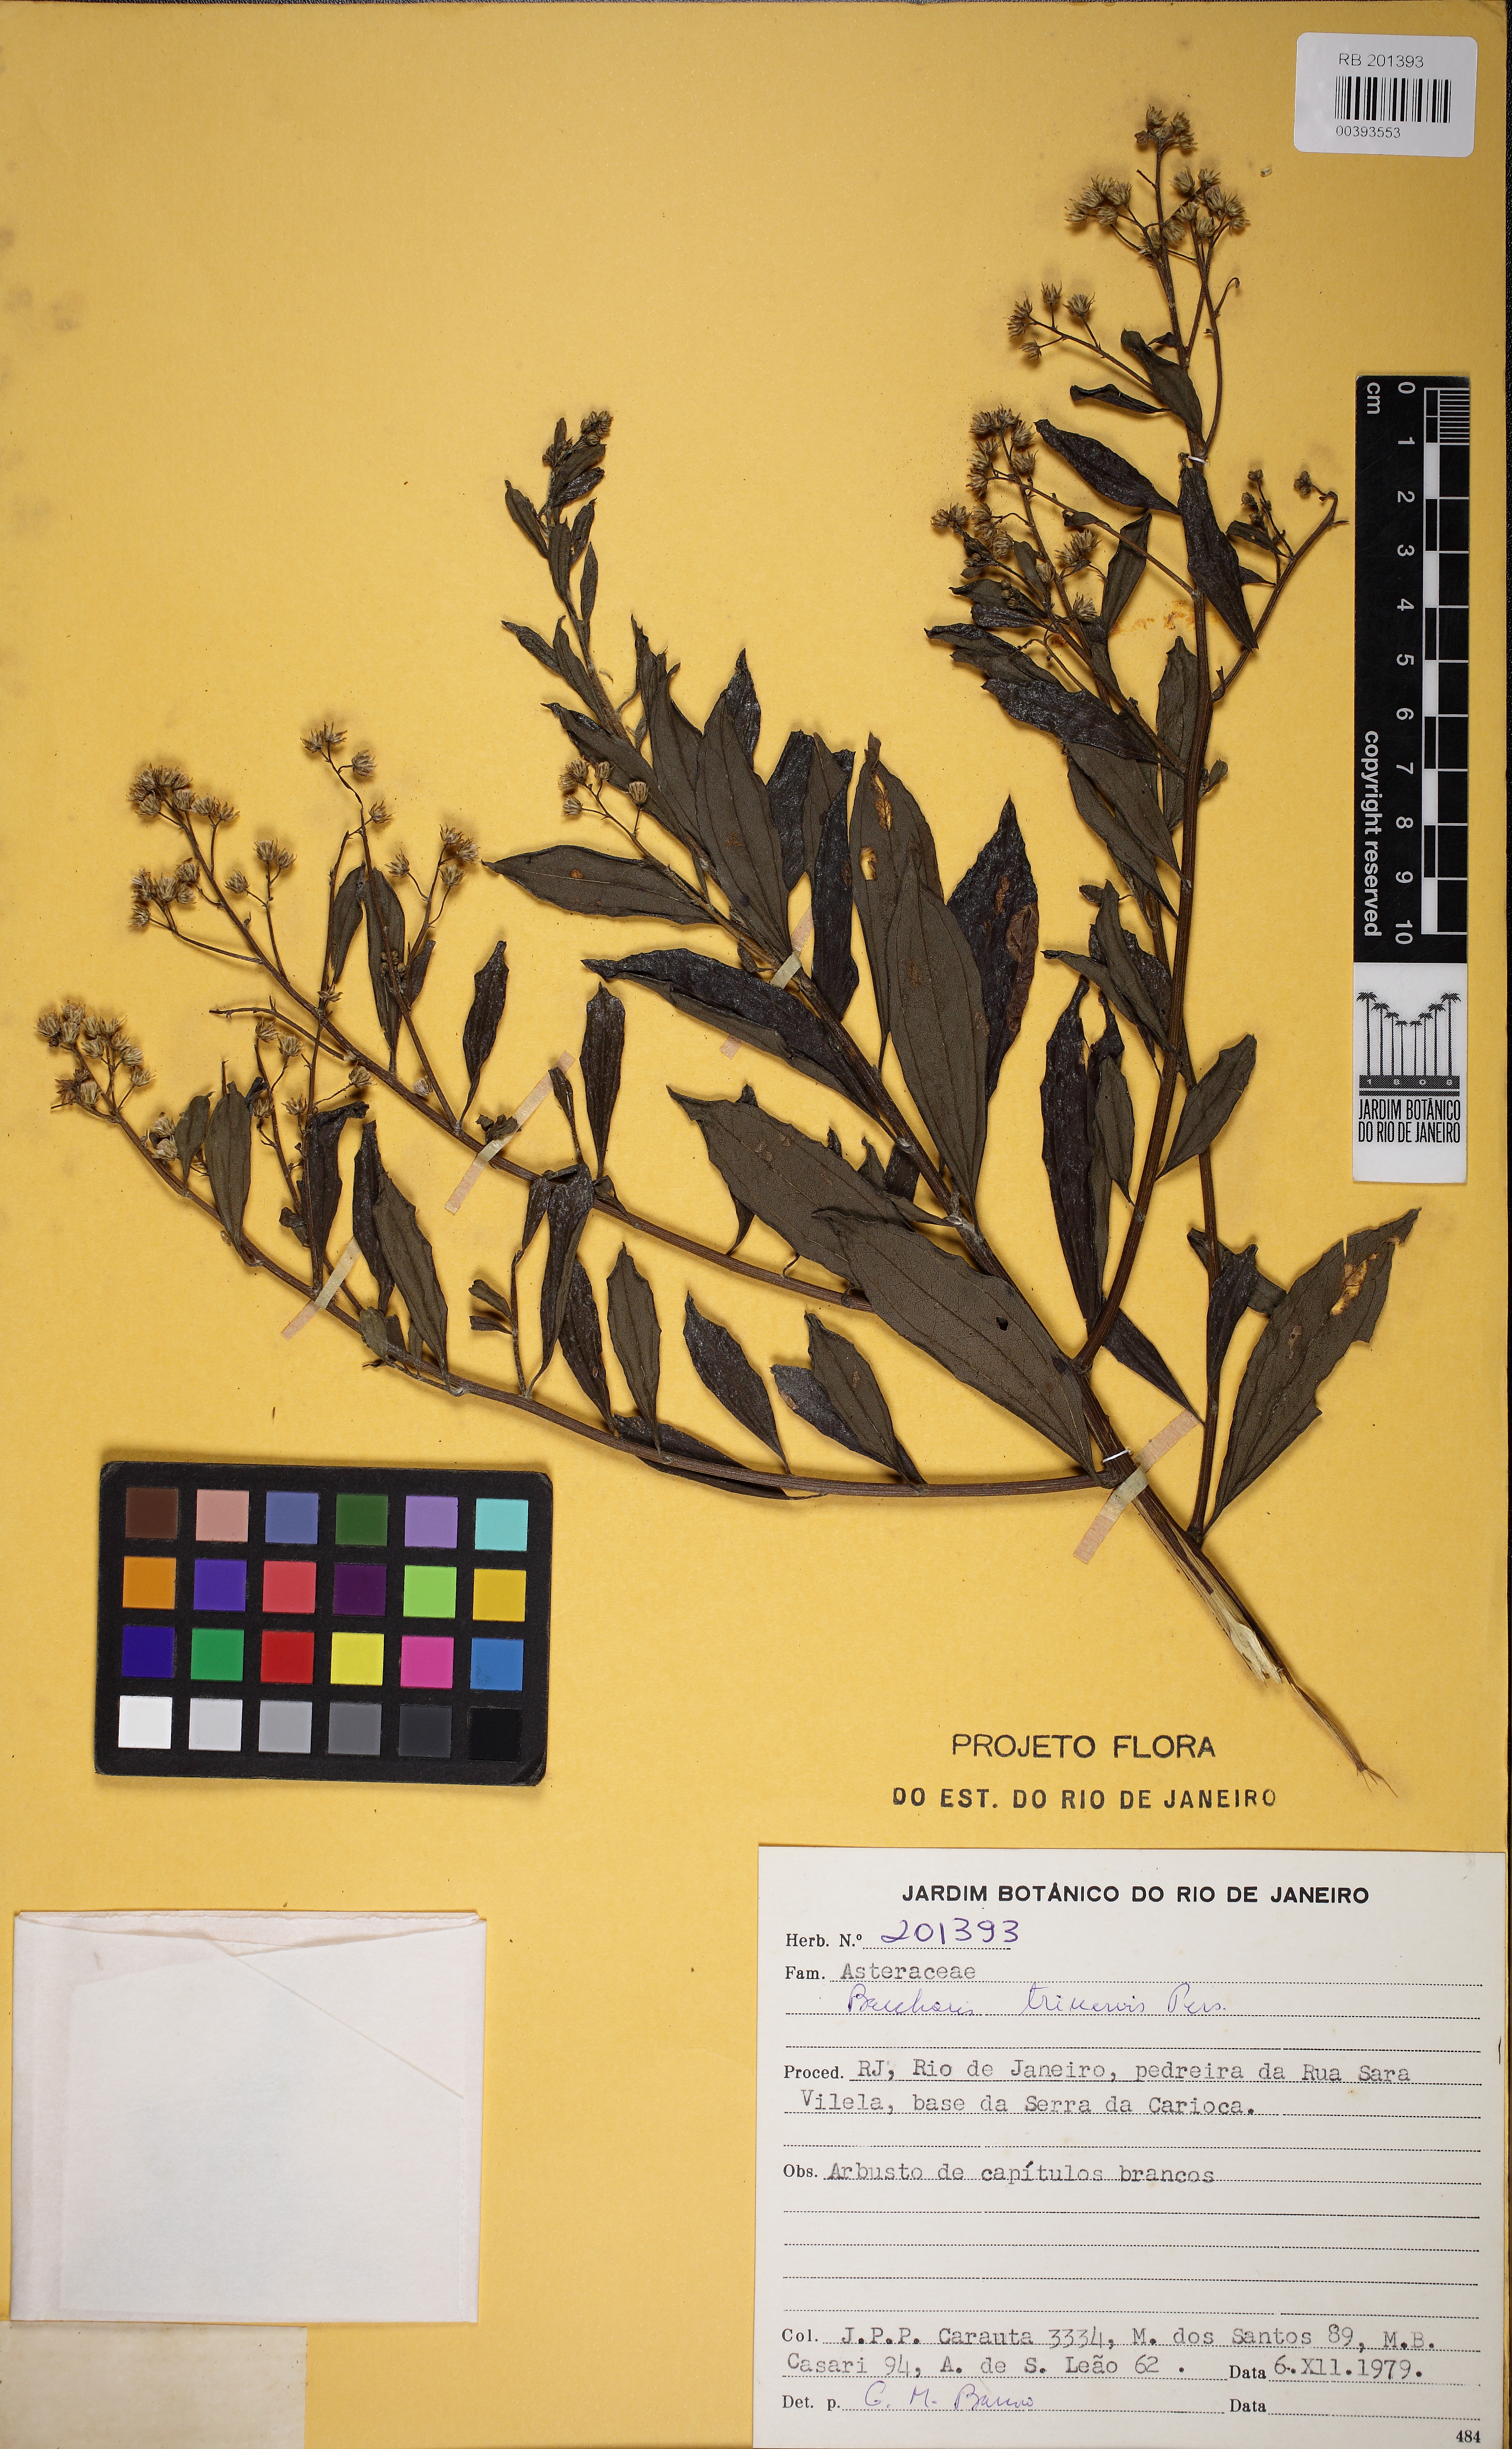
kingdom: Plantae
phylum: Tracheophyta
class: Magnoliopsida
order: Asterales
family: Asteraceae
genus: Baccharis
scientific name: Baccharis trinervis
